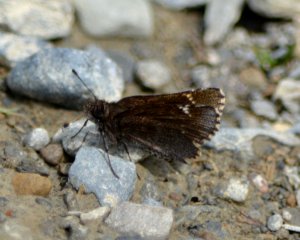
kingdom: Animalia
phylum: Arthropoda
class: Insecta
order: Lepidoptera
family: Hesperiidae
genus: Mastor
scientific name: Mastor vialis
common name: Common Roadside-Skipper
